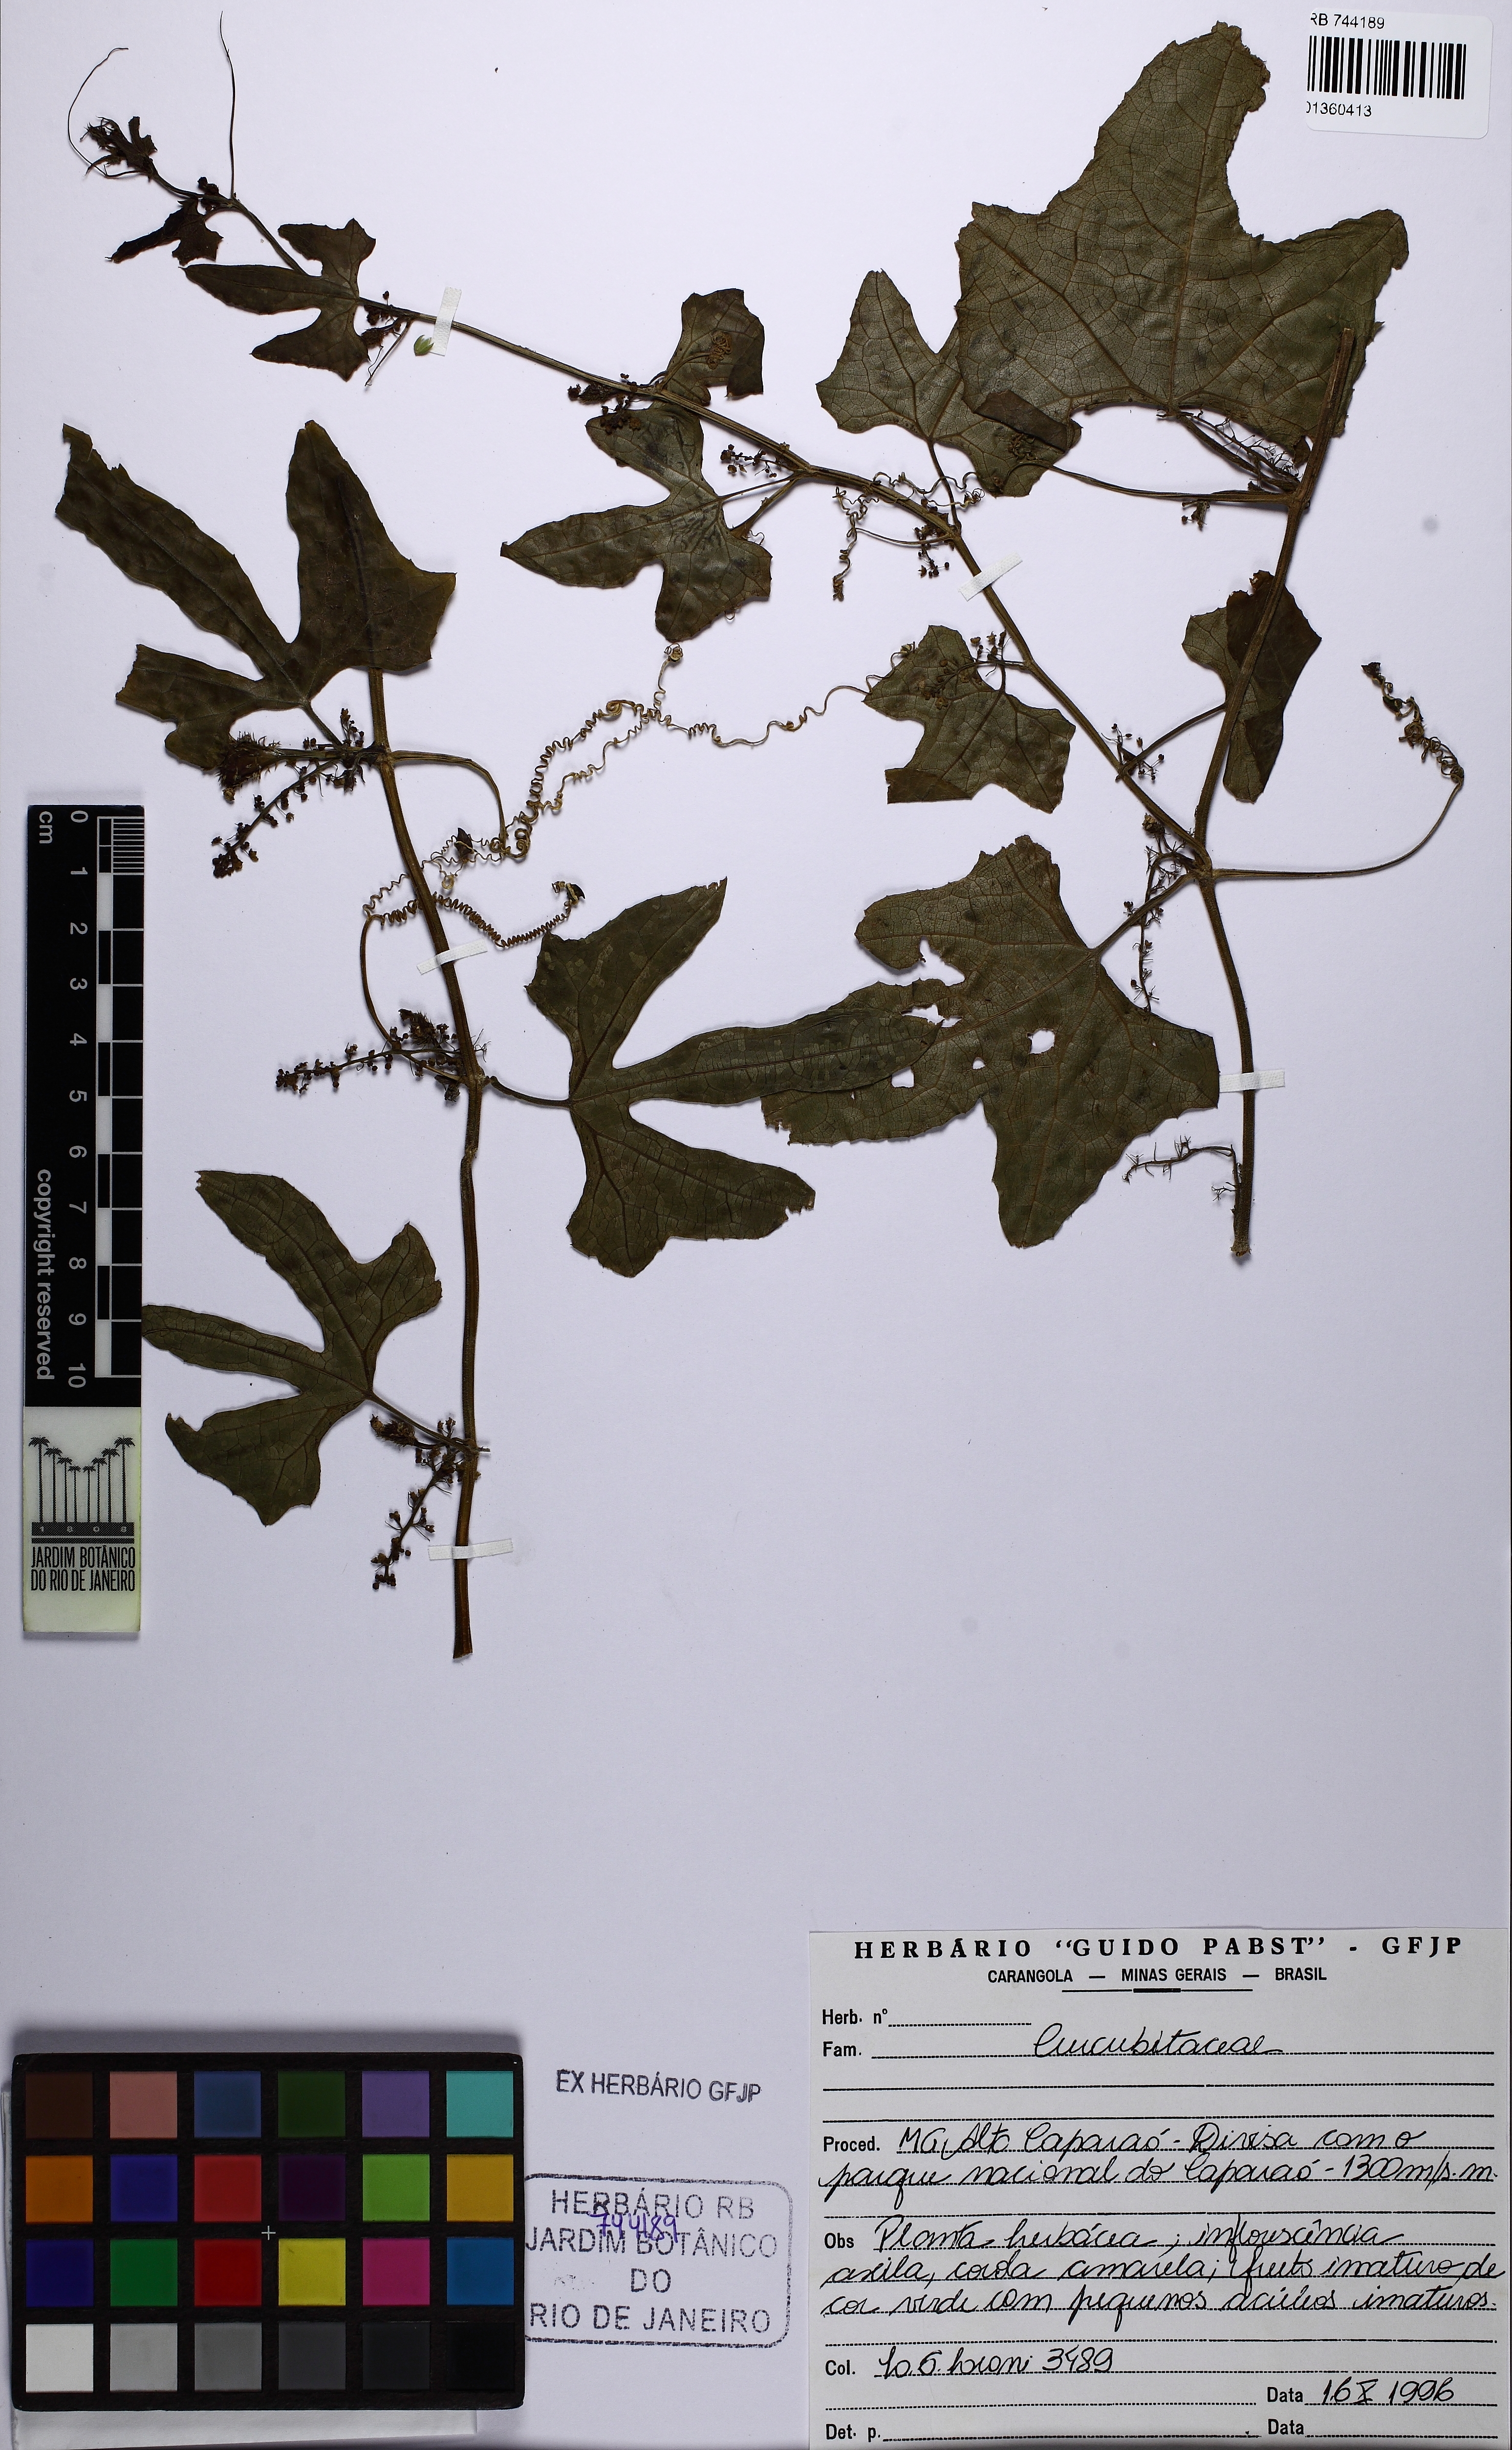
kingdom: Plantae
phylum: Tracheophyta
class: Magnoliopsida
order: Cucurbitales
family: Cucurbitaceae
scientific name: Cucurbitaceae
